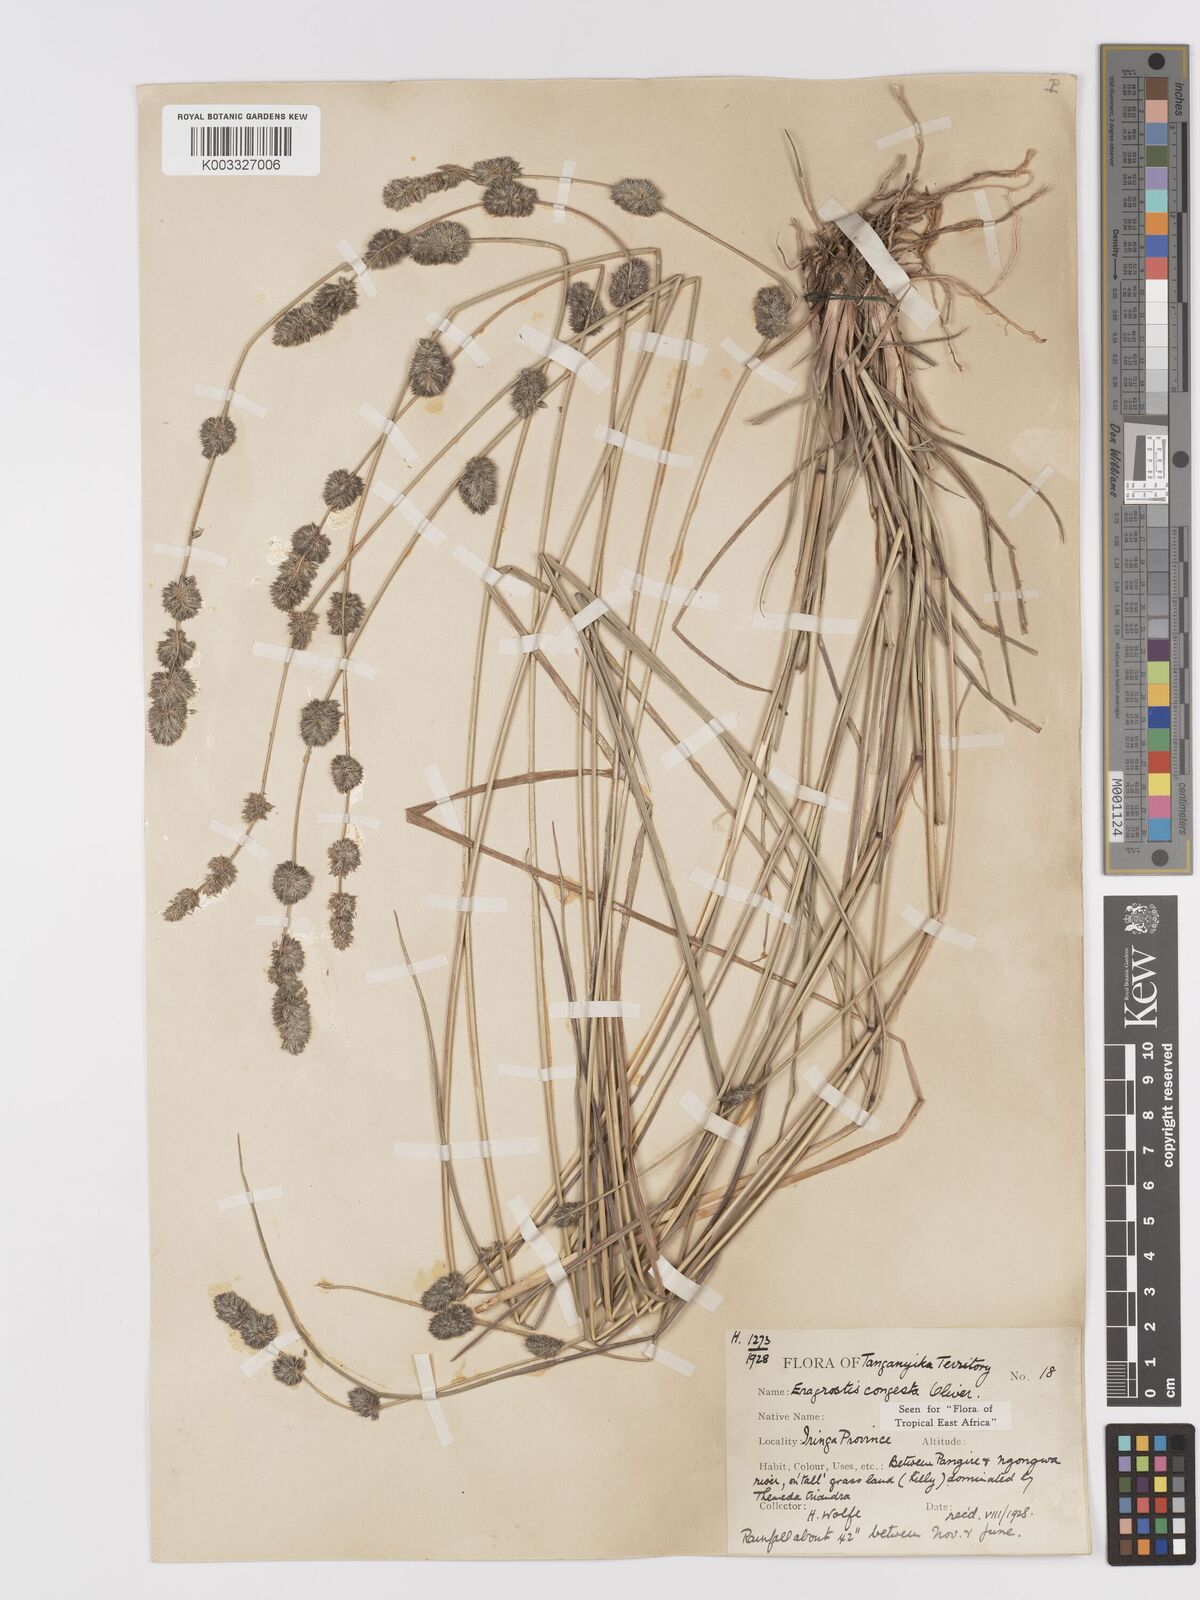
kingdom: Plantae
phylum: Tracheophyta
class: Liliopsida
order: Poales
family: Poaceae
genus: Eragrostis
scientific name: Eragrostis congesta
